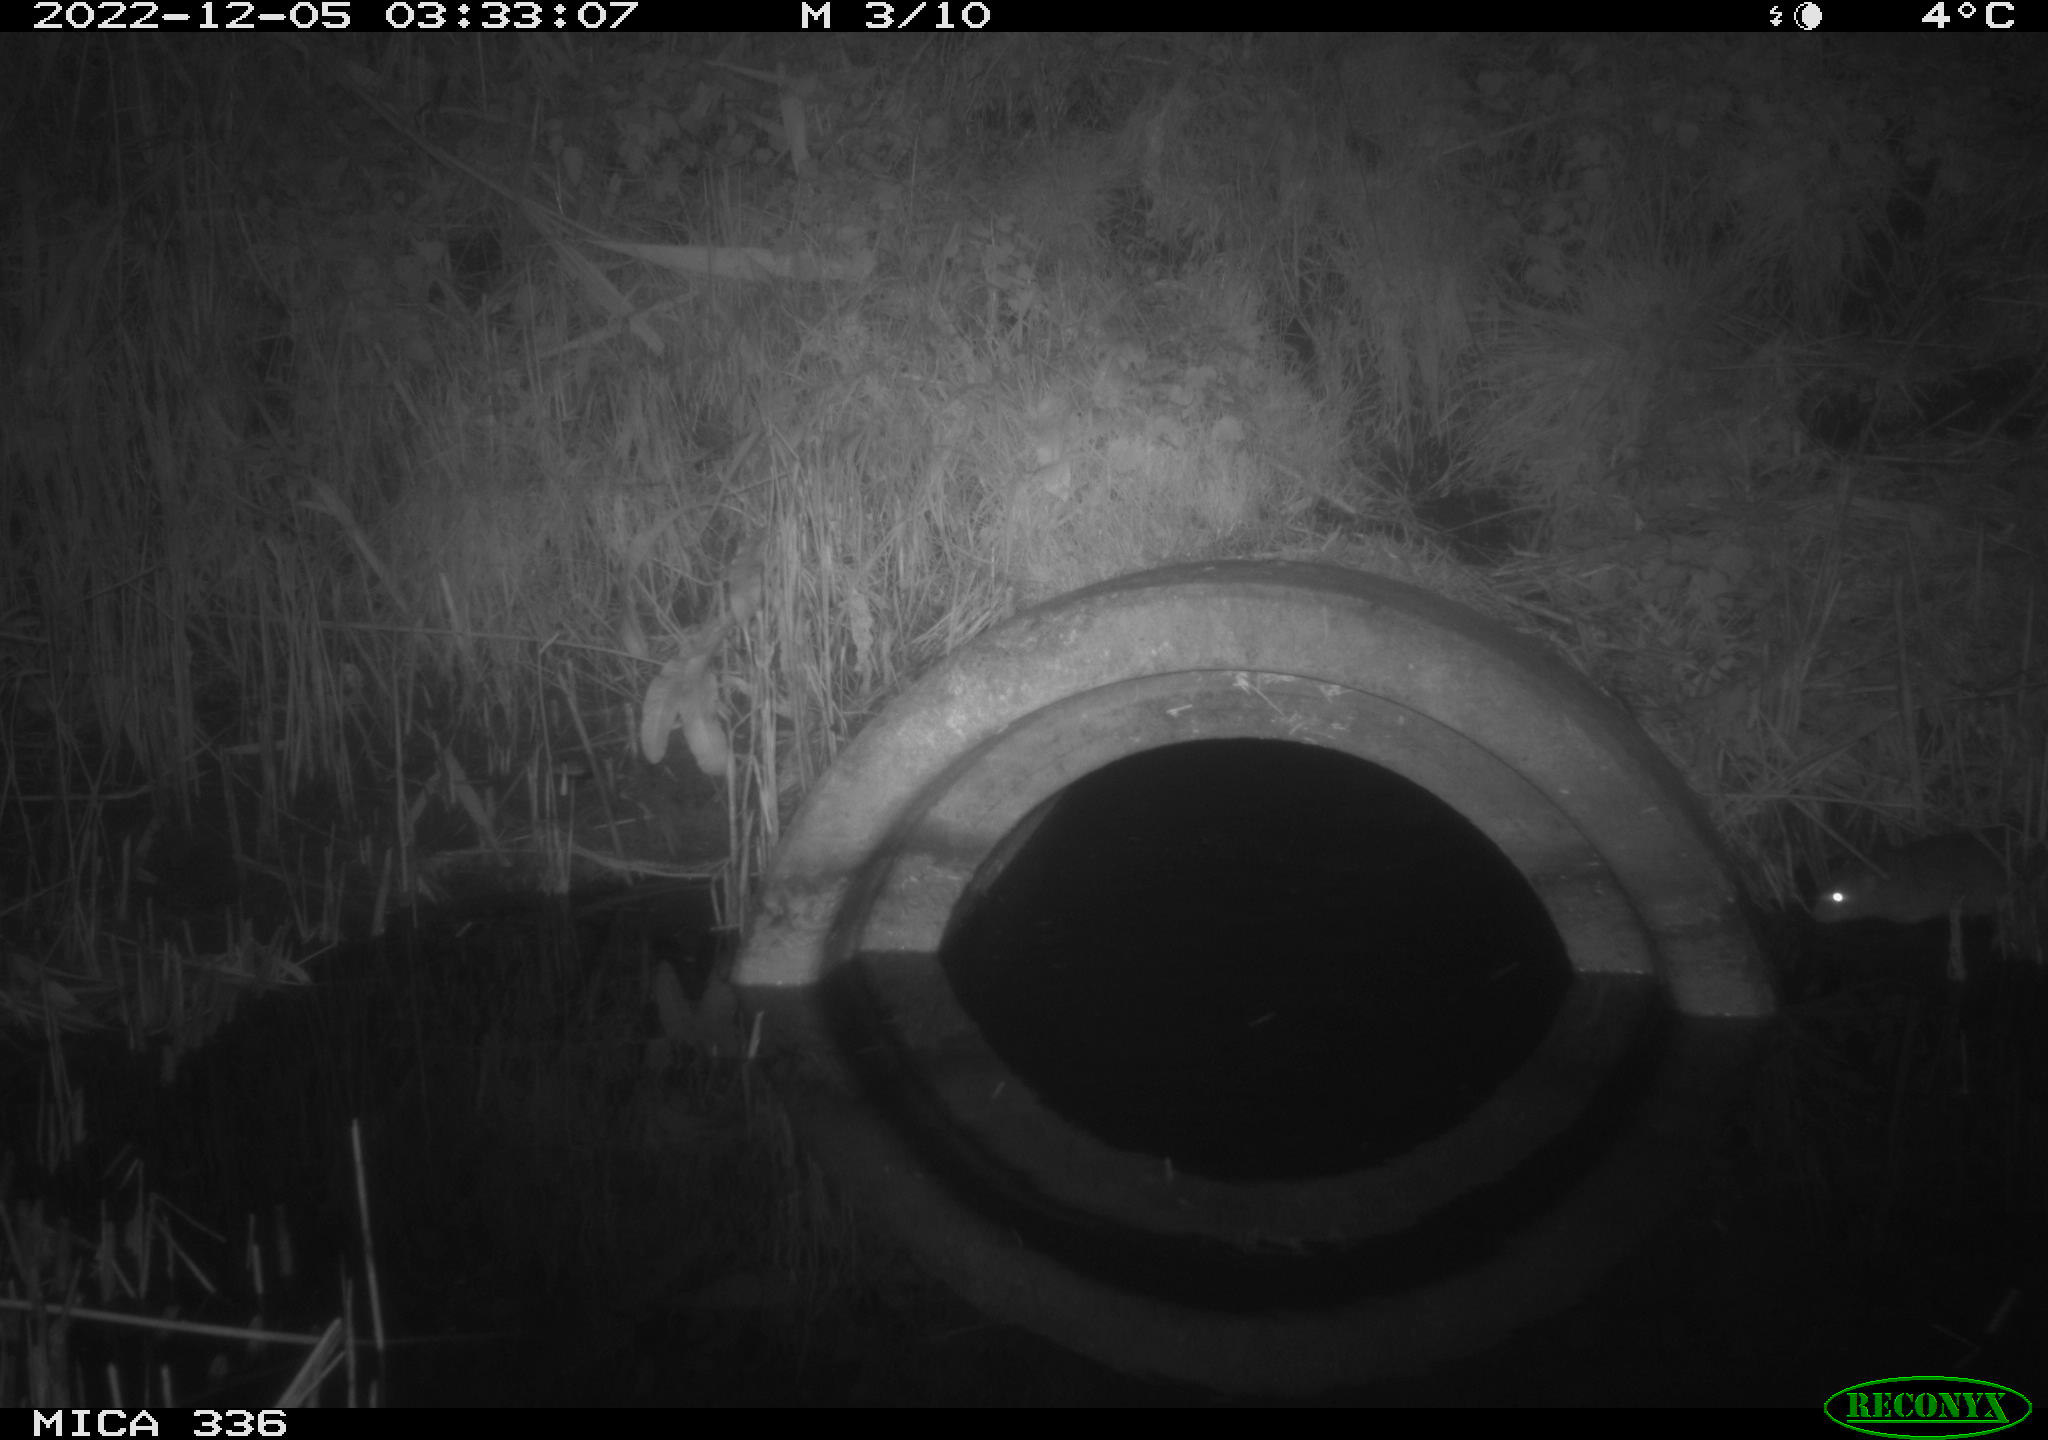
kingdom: Animalia
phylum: Chordata
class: Mammalia
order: Rodentia
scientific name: Rodentia
